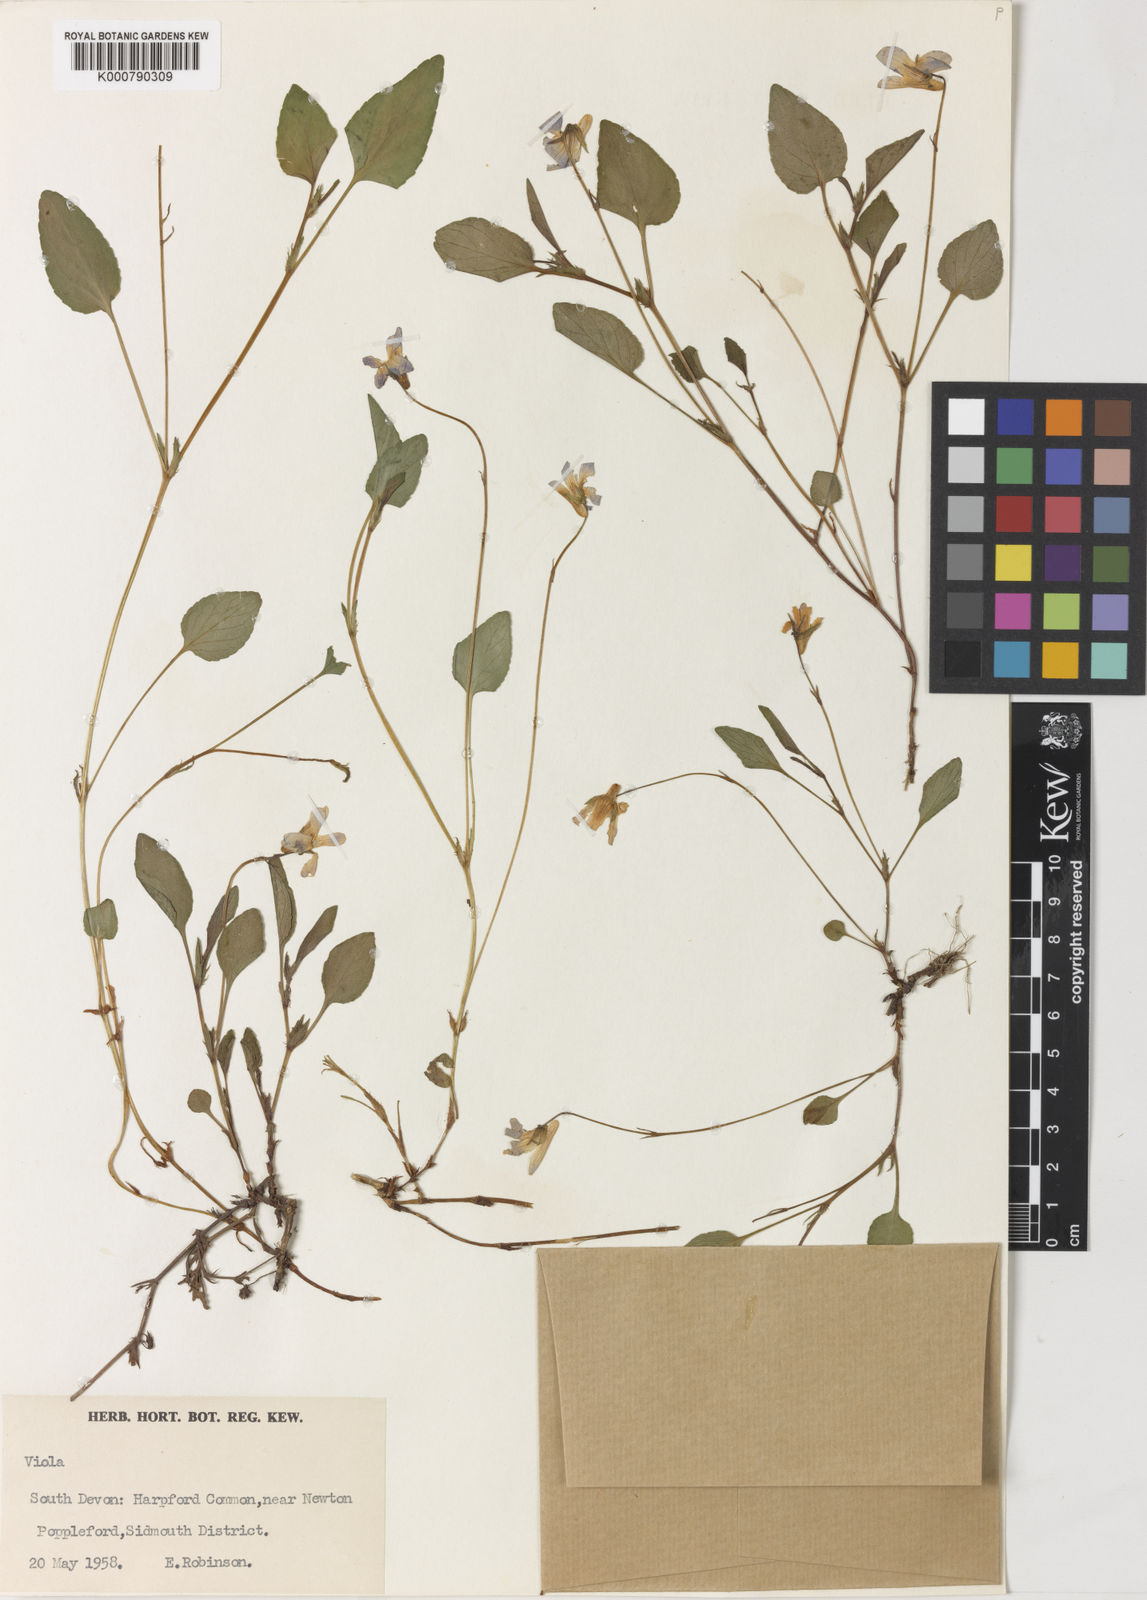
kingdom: Plantae
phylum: Tracheophyta
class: Magnoliopsida
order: Malpighiales
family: Violaceae
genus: Viola
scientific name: Viola lactea
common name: Pale dog-violet
